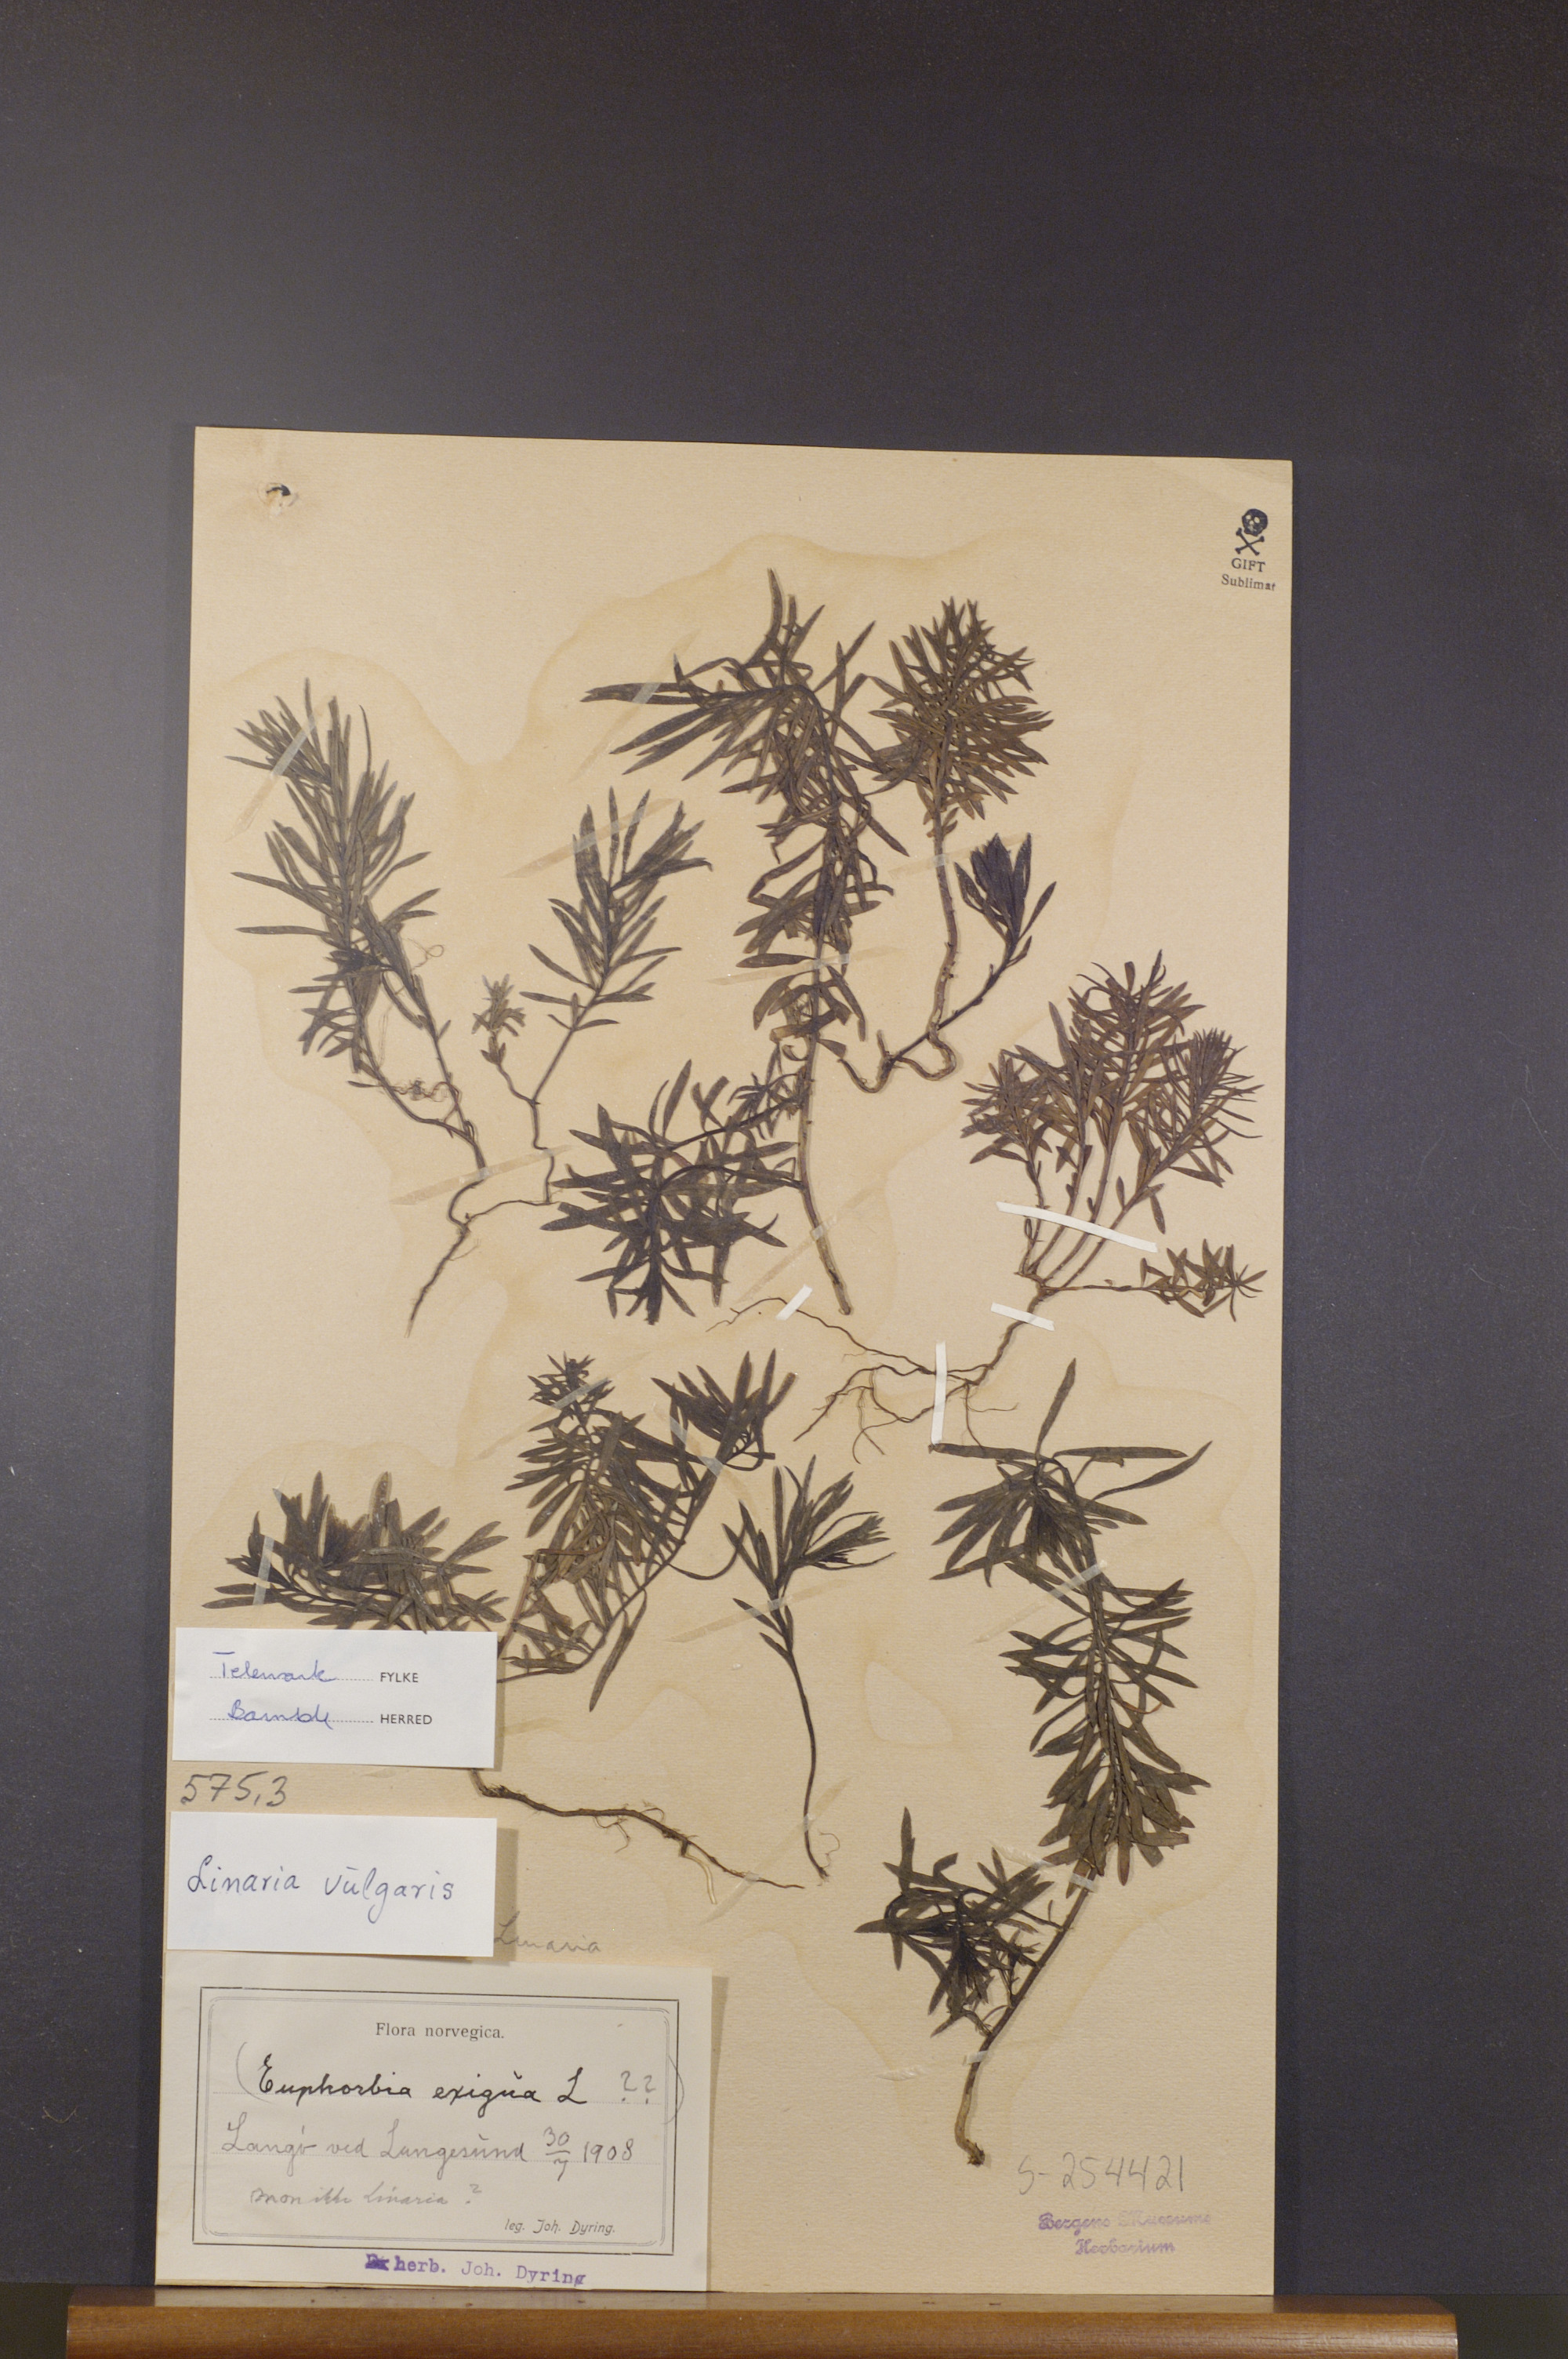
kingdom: Plantae
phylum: Tracheophyta
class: Magnoliopsida
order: Lamiales
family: Plantaginaceae
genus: Linaria
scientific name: Linaria vulgaris
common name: Butter and eggs
